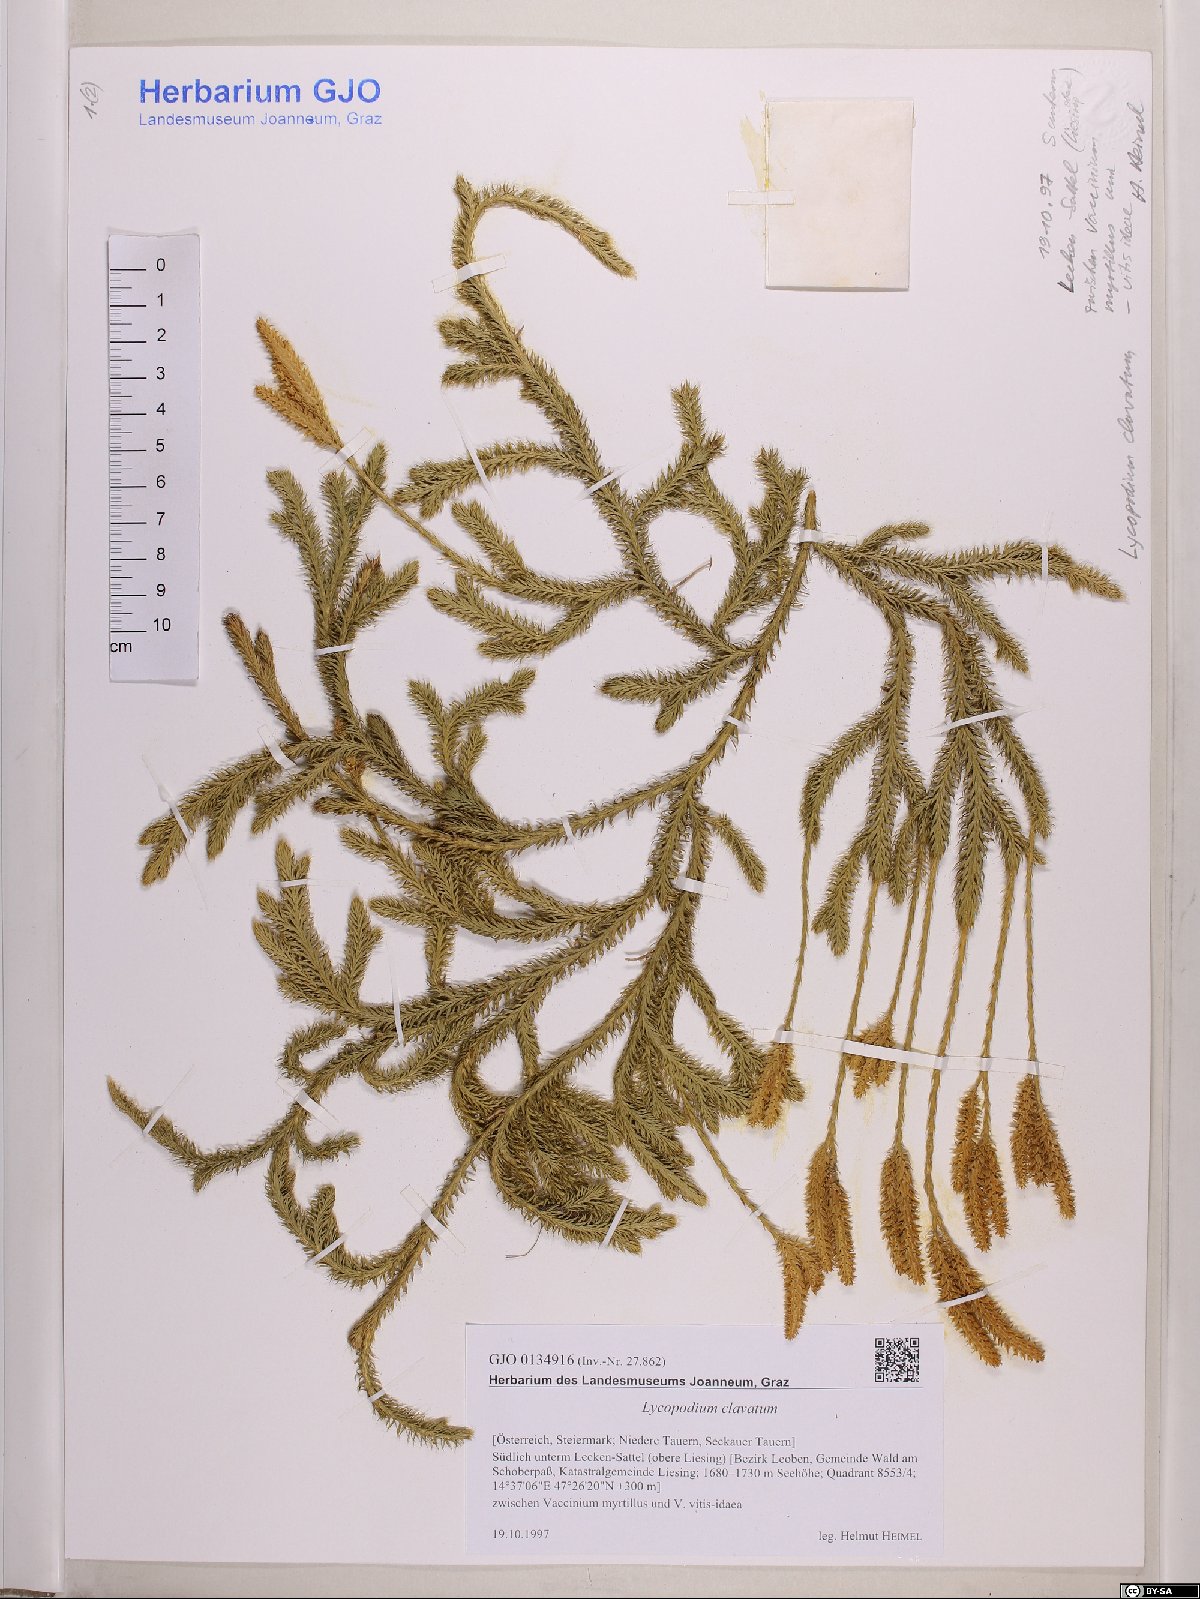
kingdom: Plantae
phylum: Tracheophyta
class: Lycopodiopsida
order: Lycopodiales
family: Lycopodiaceae
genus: Lycopodium
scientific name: Lycopodium clavatum
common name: Stag's-horn clubmoss
